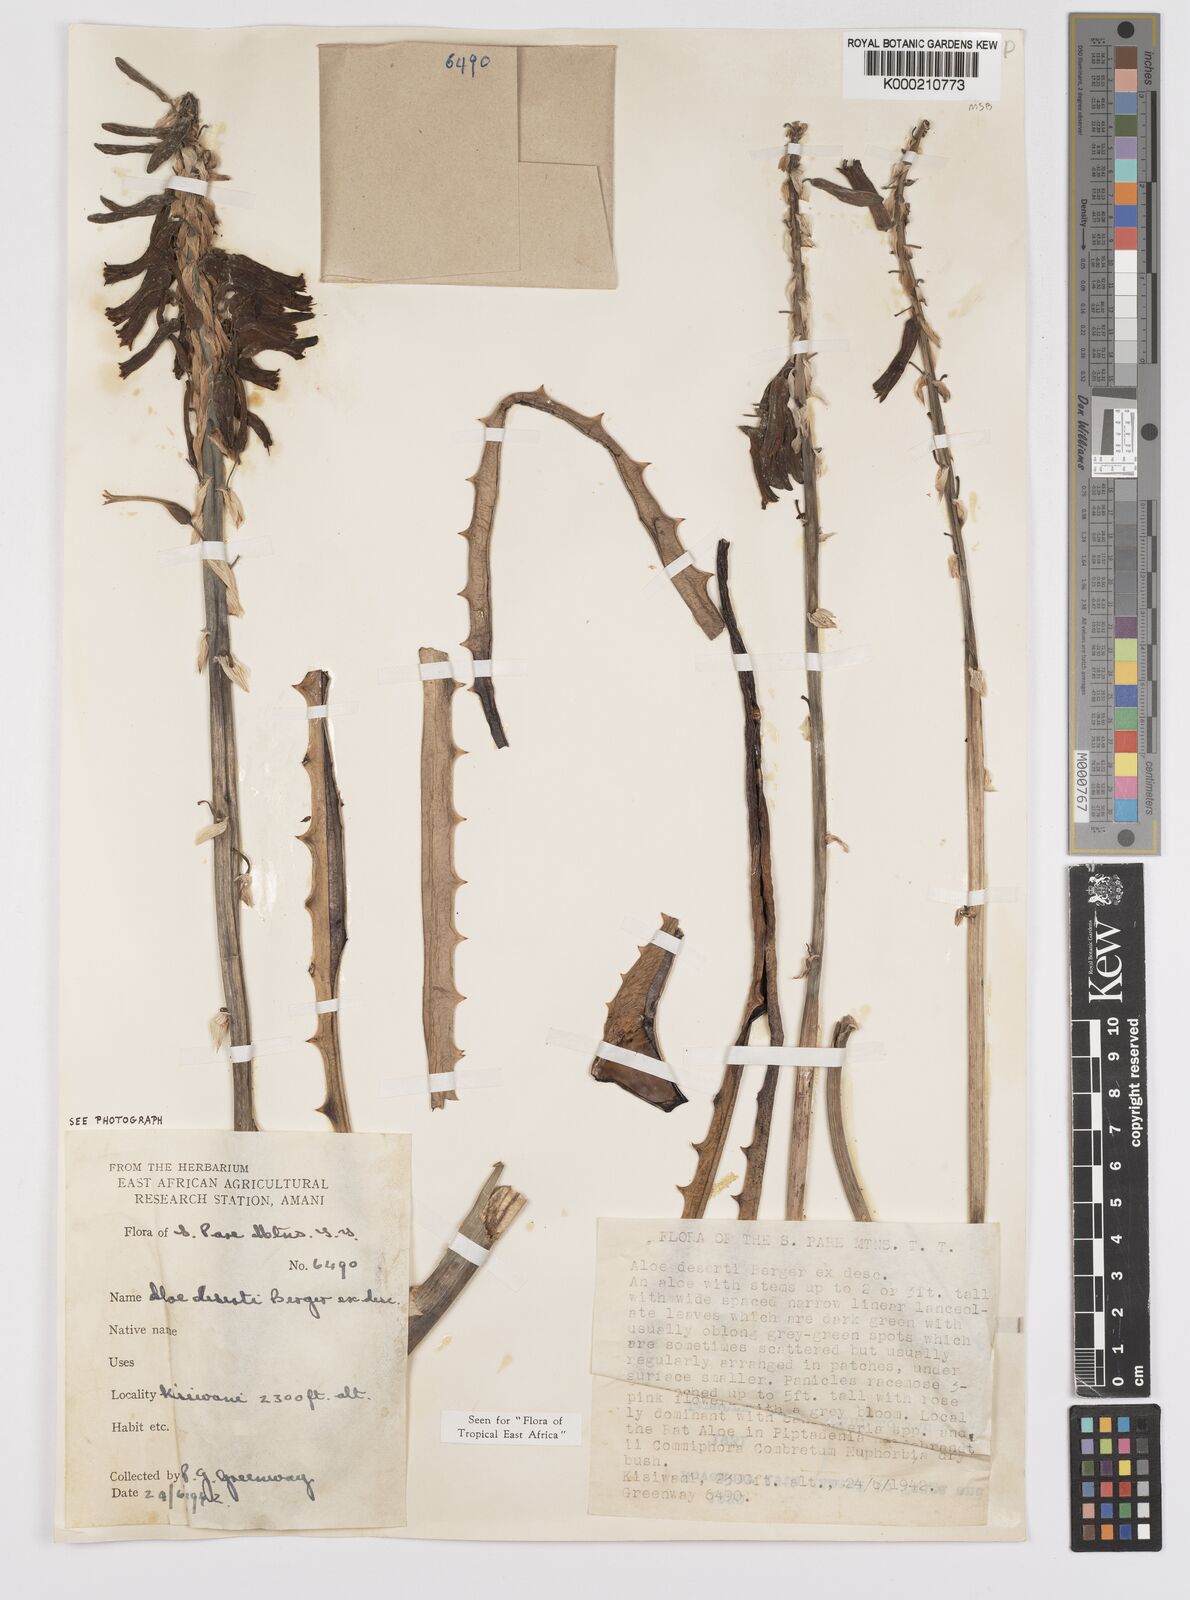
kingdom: Plantae
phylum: Tracheophyta
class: Liliopsida
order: Asparagales
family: Asphodelaceae
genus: Aloe
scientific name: Aloe deserti
